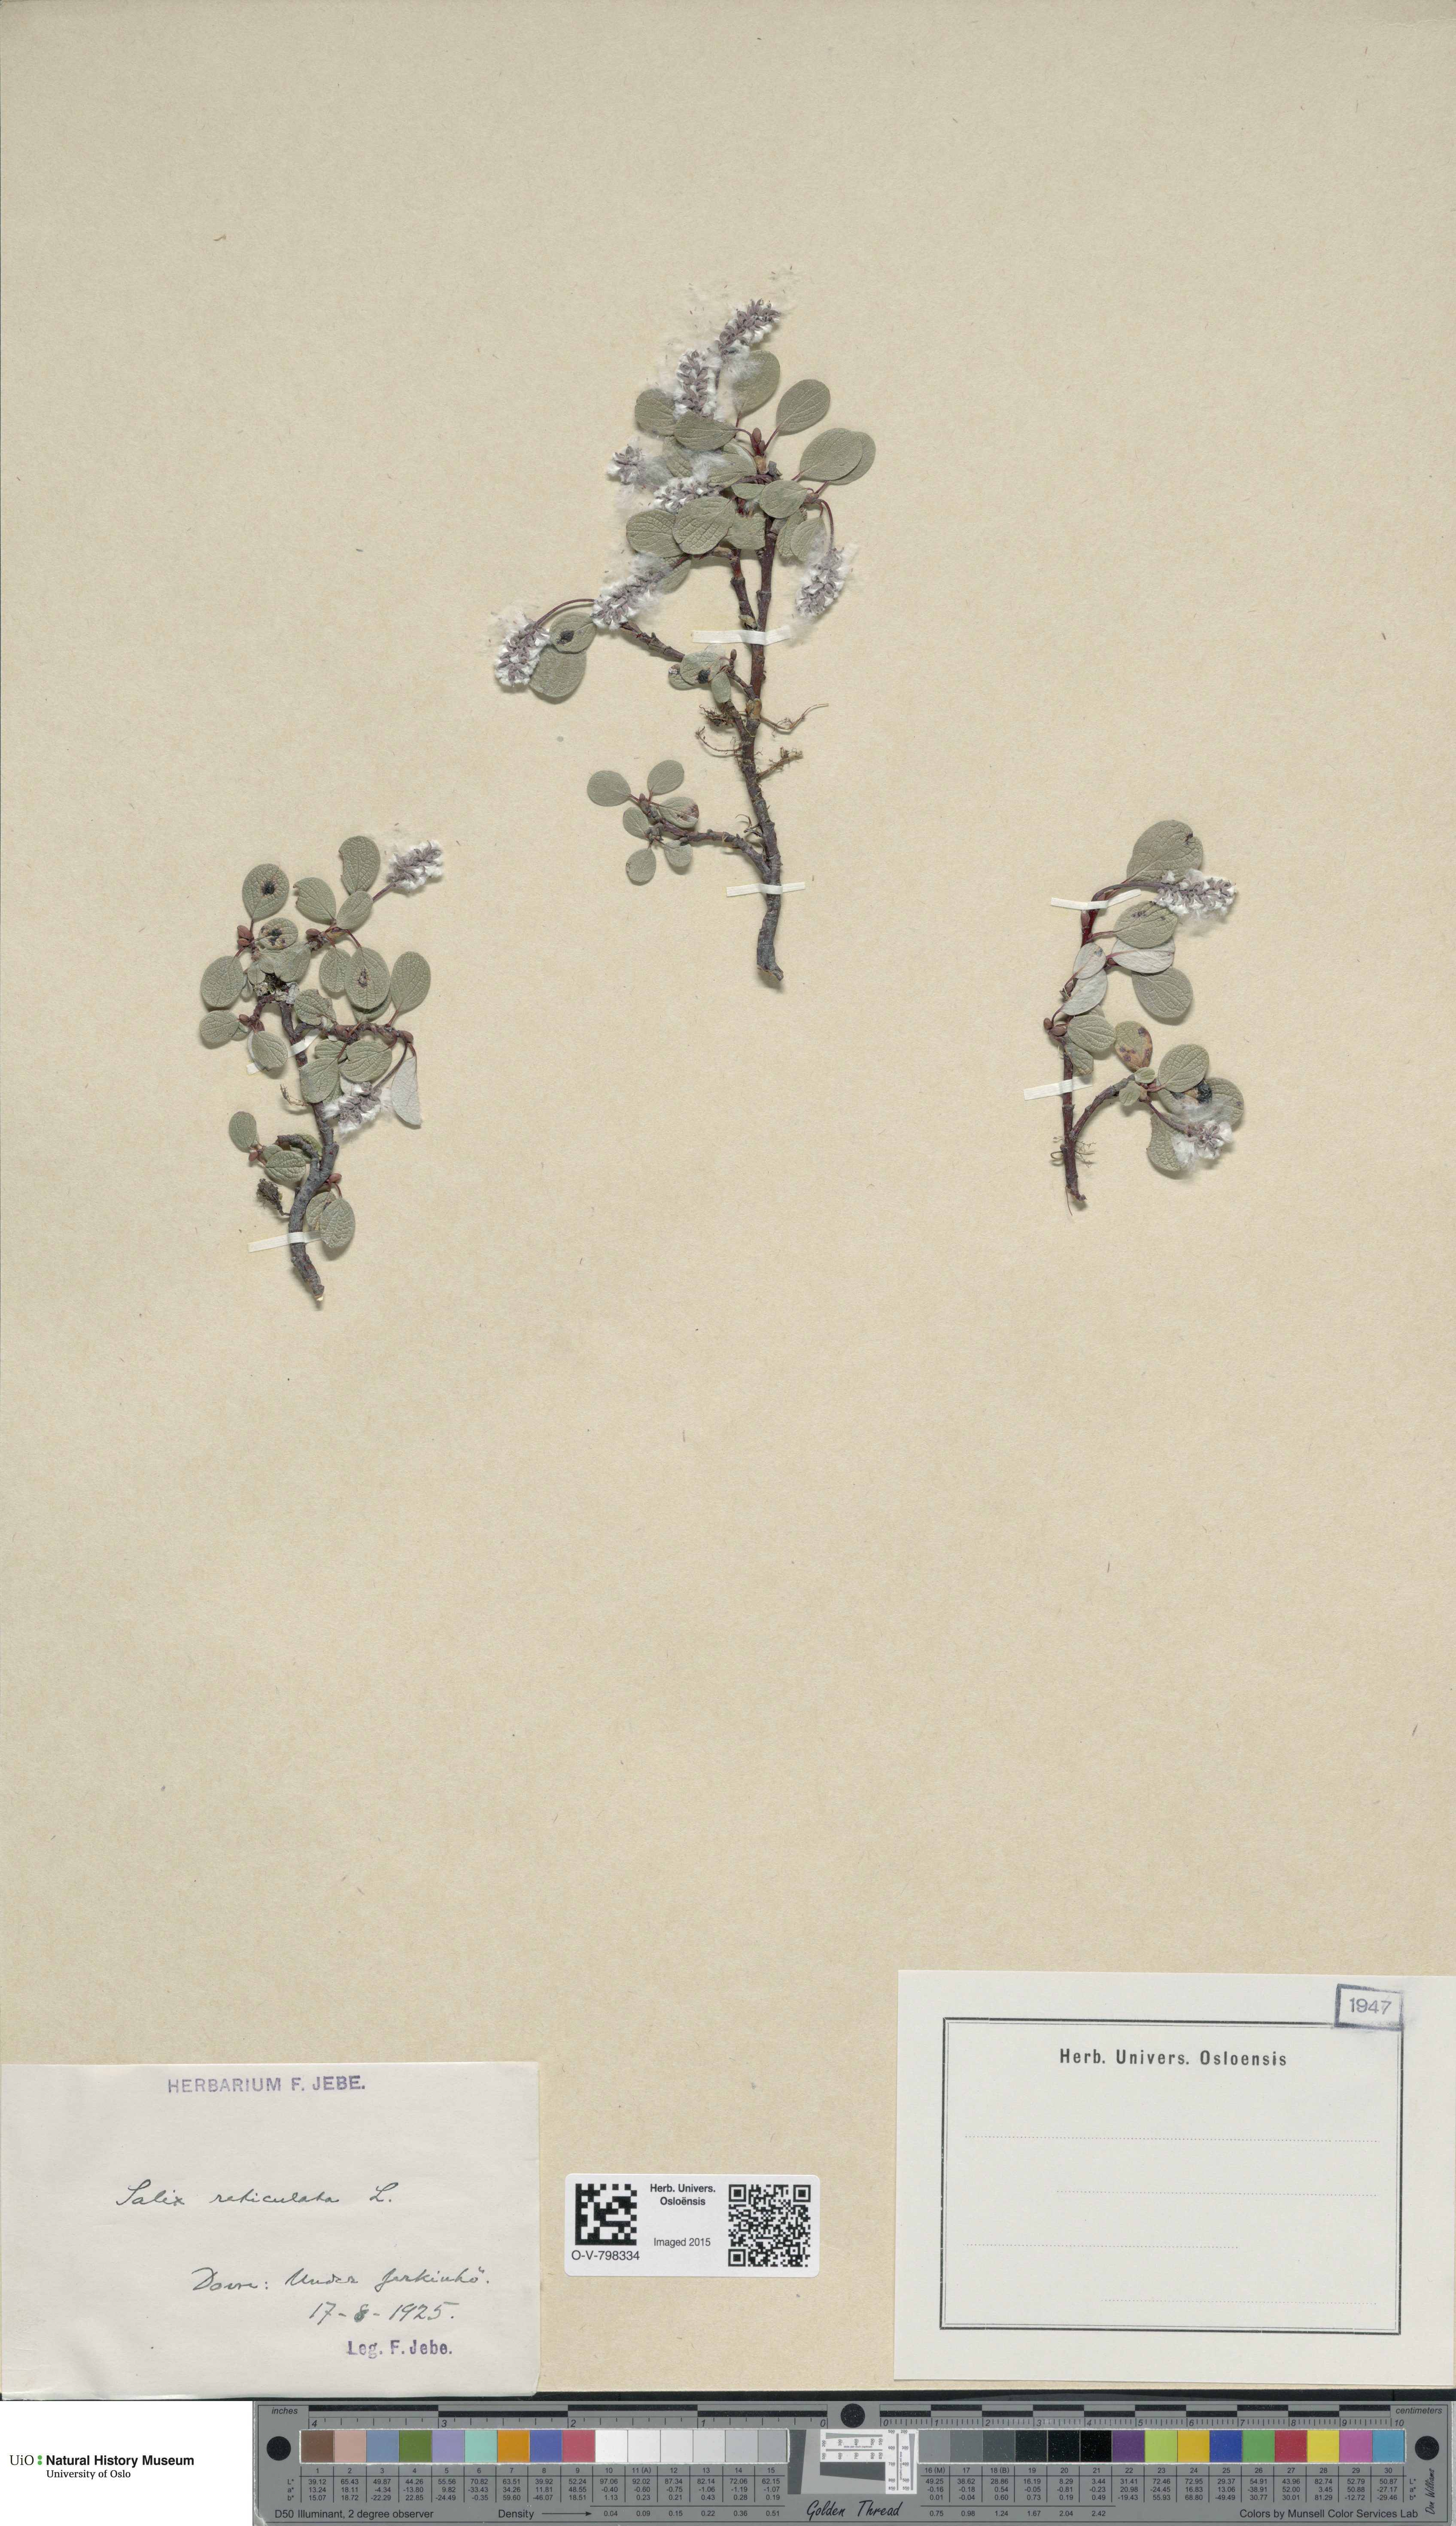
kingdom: Plantae
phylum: Tracheophyta
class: Magnoliopsida
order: Malpighiales
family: Salicaceae
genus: Salix
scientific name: Salix reticulata
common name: Net-leaved willow
